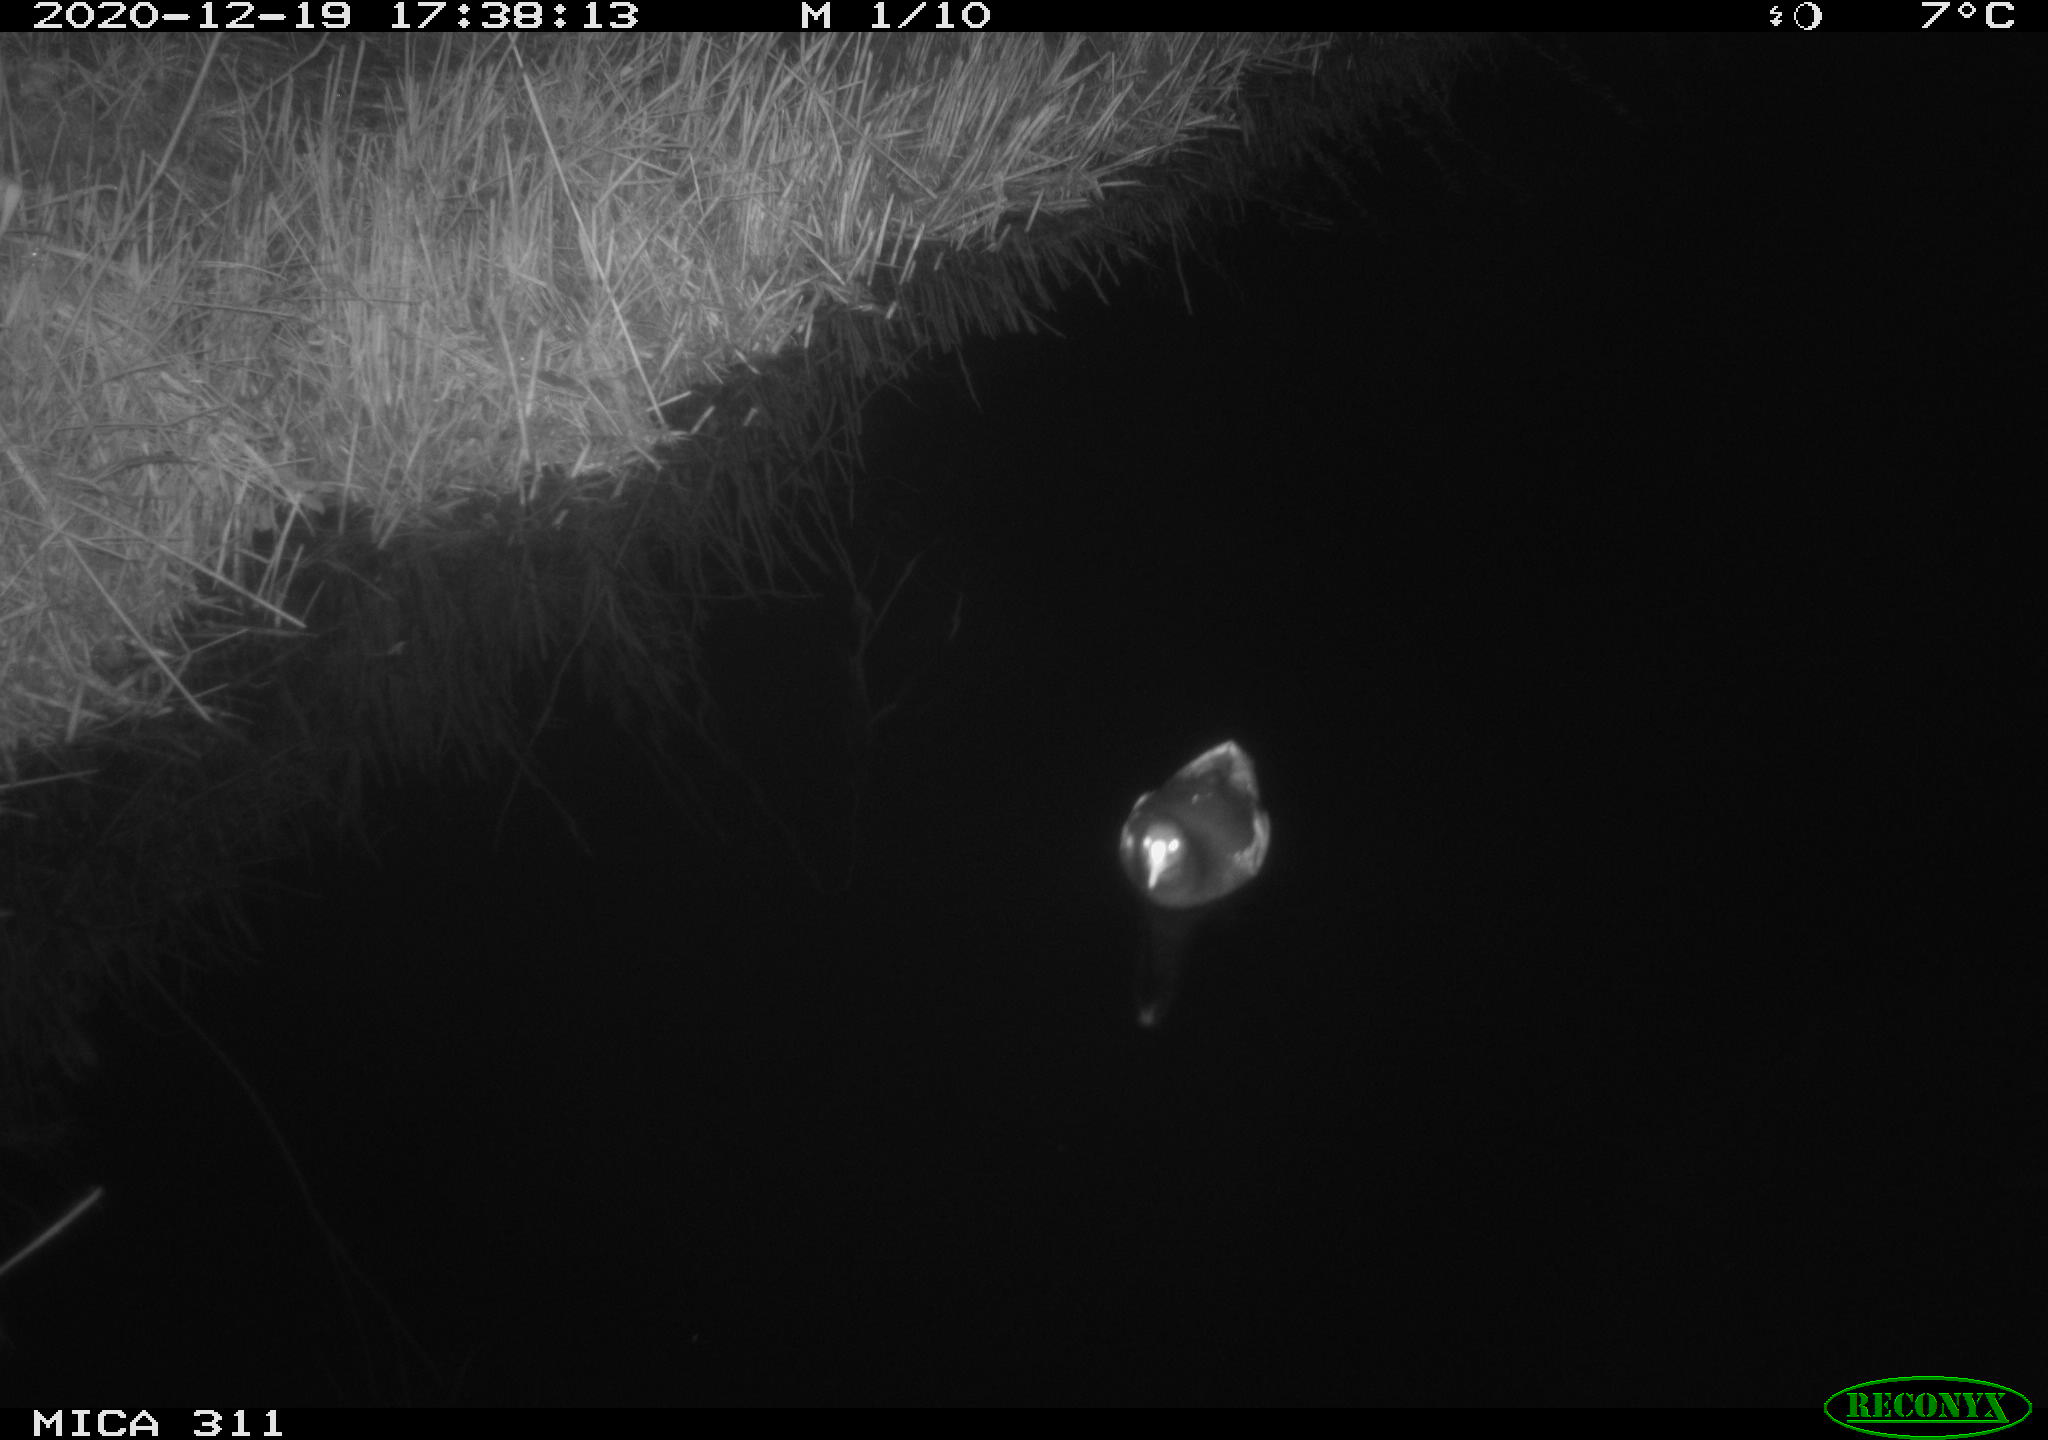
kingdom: Animalia
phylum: Chordata
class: Aves
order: Gruiformes
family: Rallidae
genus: Gallinula
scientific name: Gallinula chloropus
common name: Common moorhen
